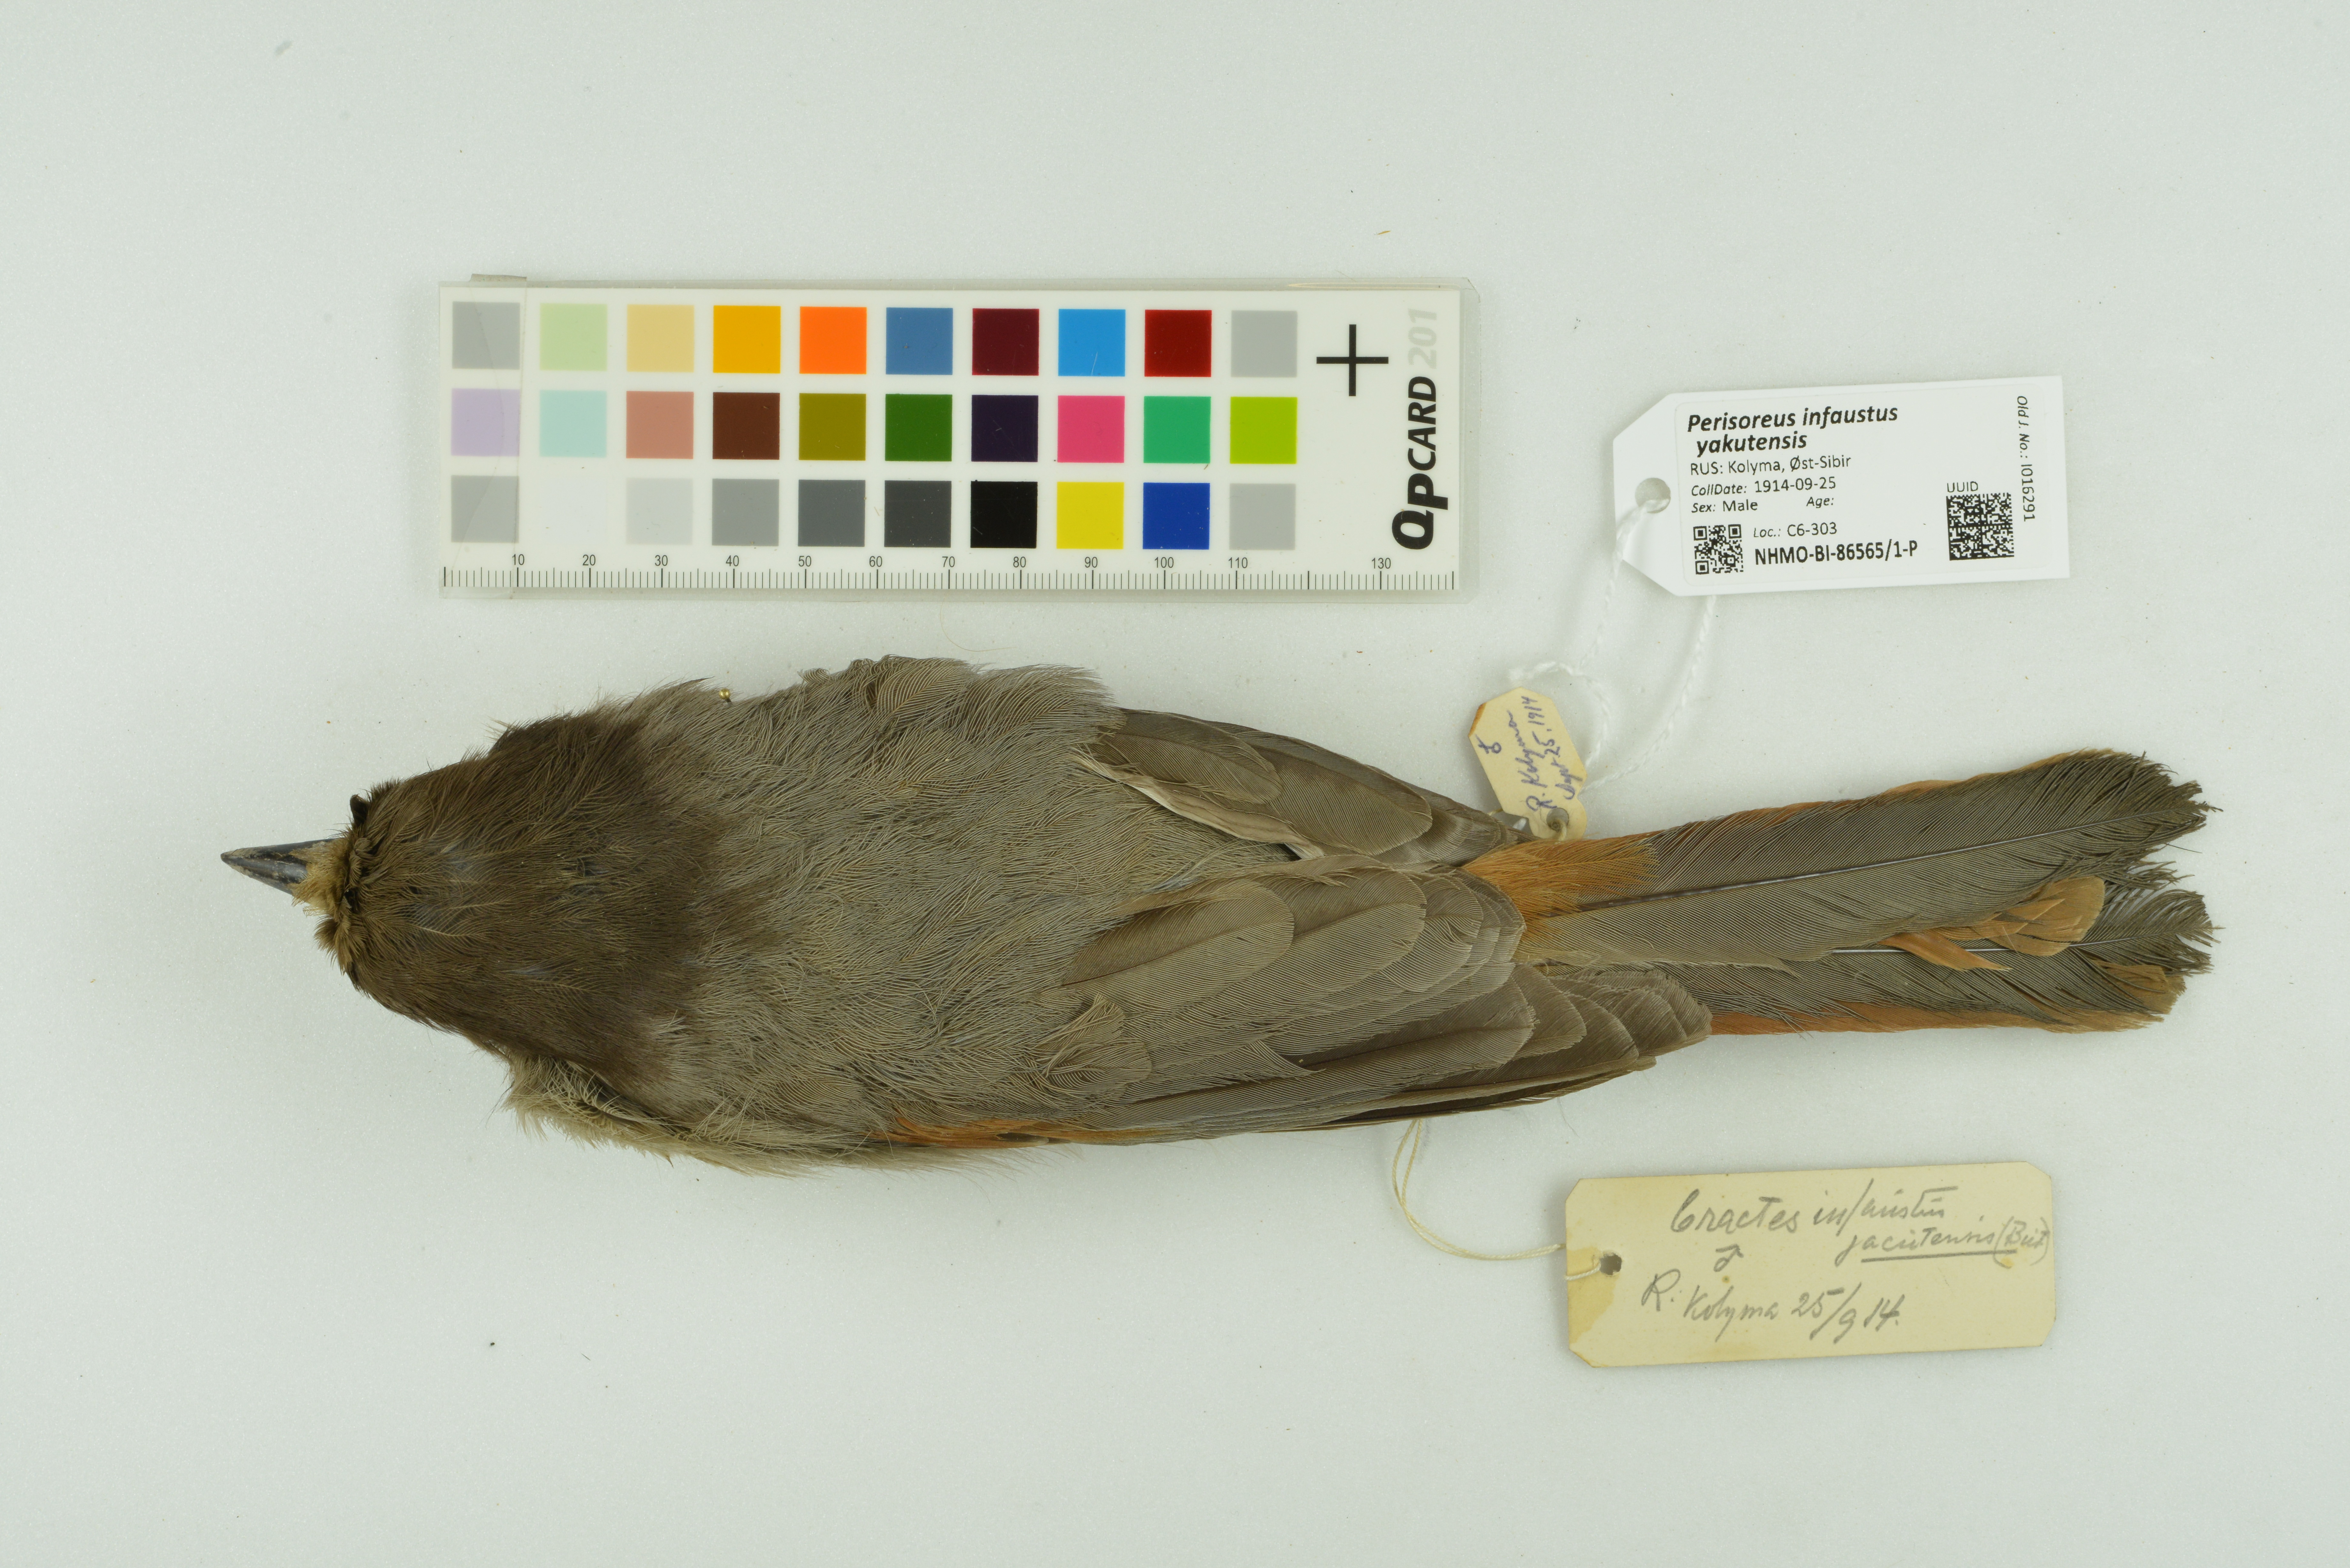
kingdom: Animalia
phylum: Chordata
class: Aves
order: Passeriformes
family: Corvidae
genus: Perisoreus
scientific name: Perisoreus infaustus
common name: Siberian jay
